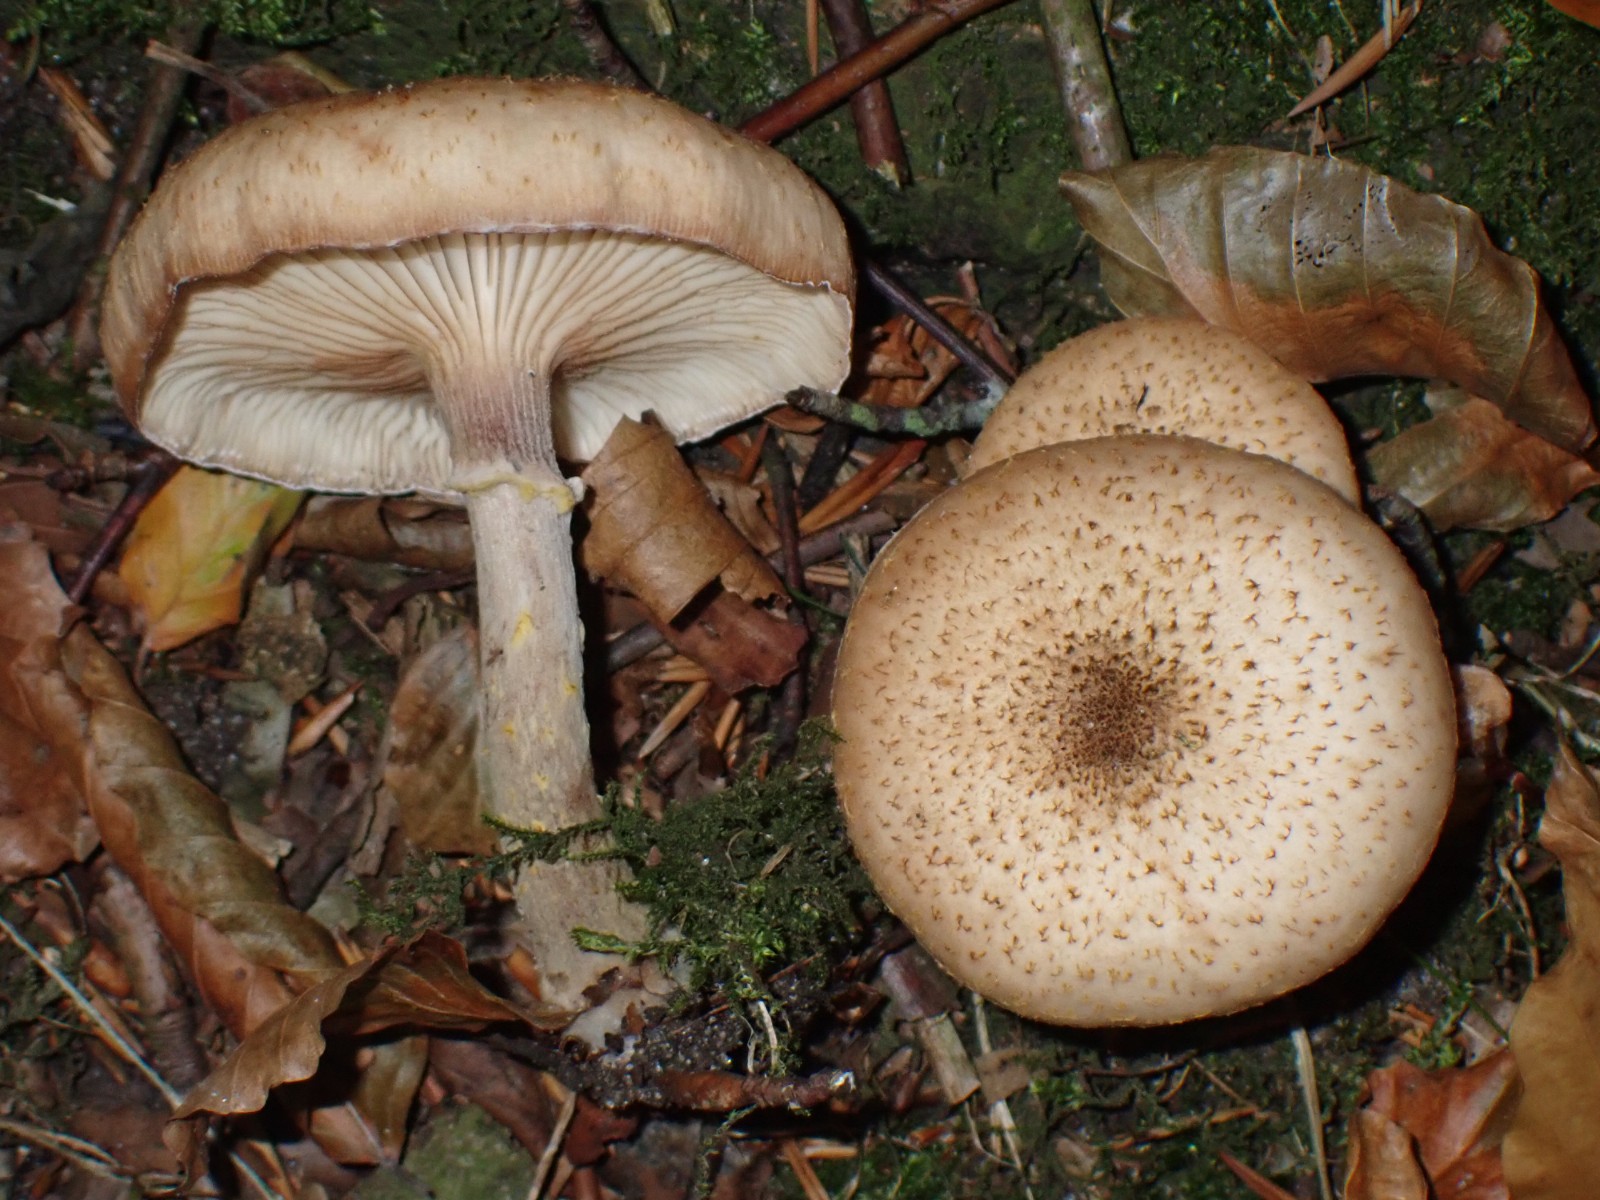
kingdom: Fungi
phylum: Basidiomycota
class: Agaricomycetes
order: Agaricales
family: Physalacriaceae
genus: Armillaria
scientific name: Armillaria lutea
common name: køllestokket honningsvamp
